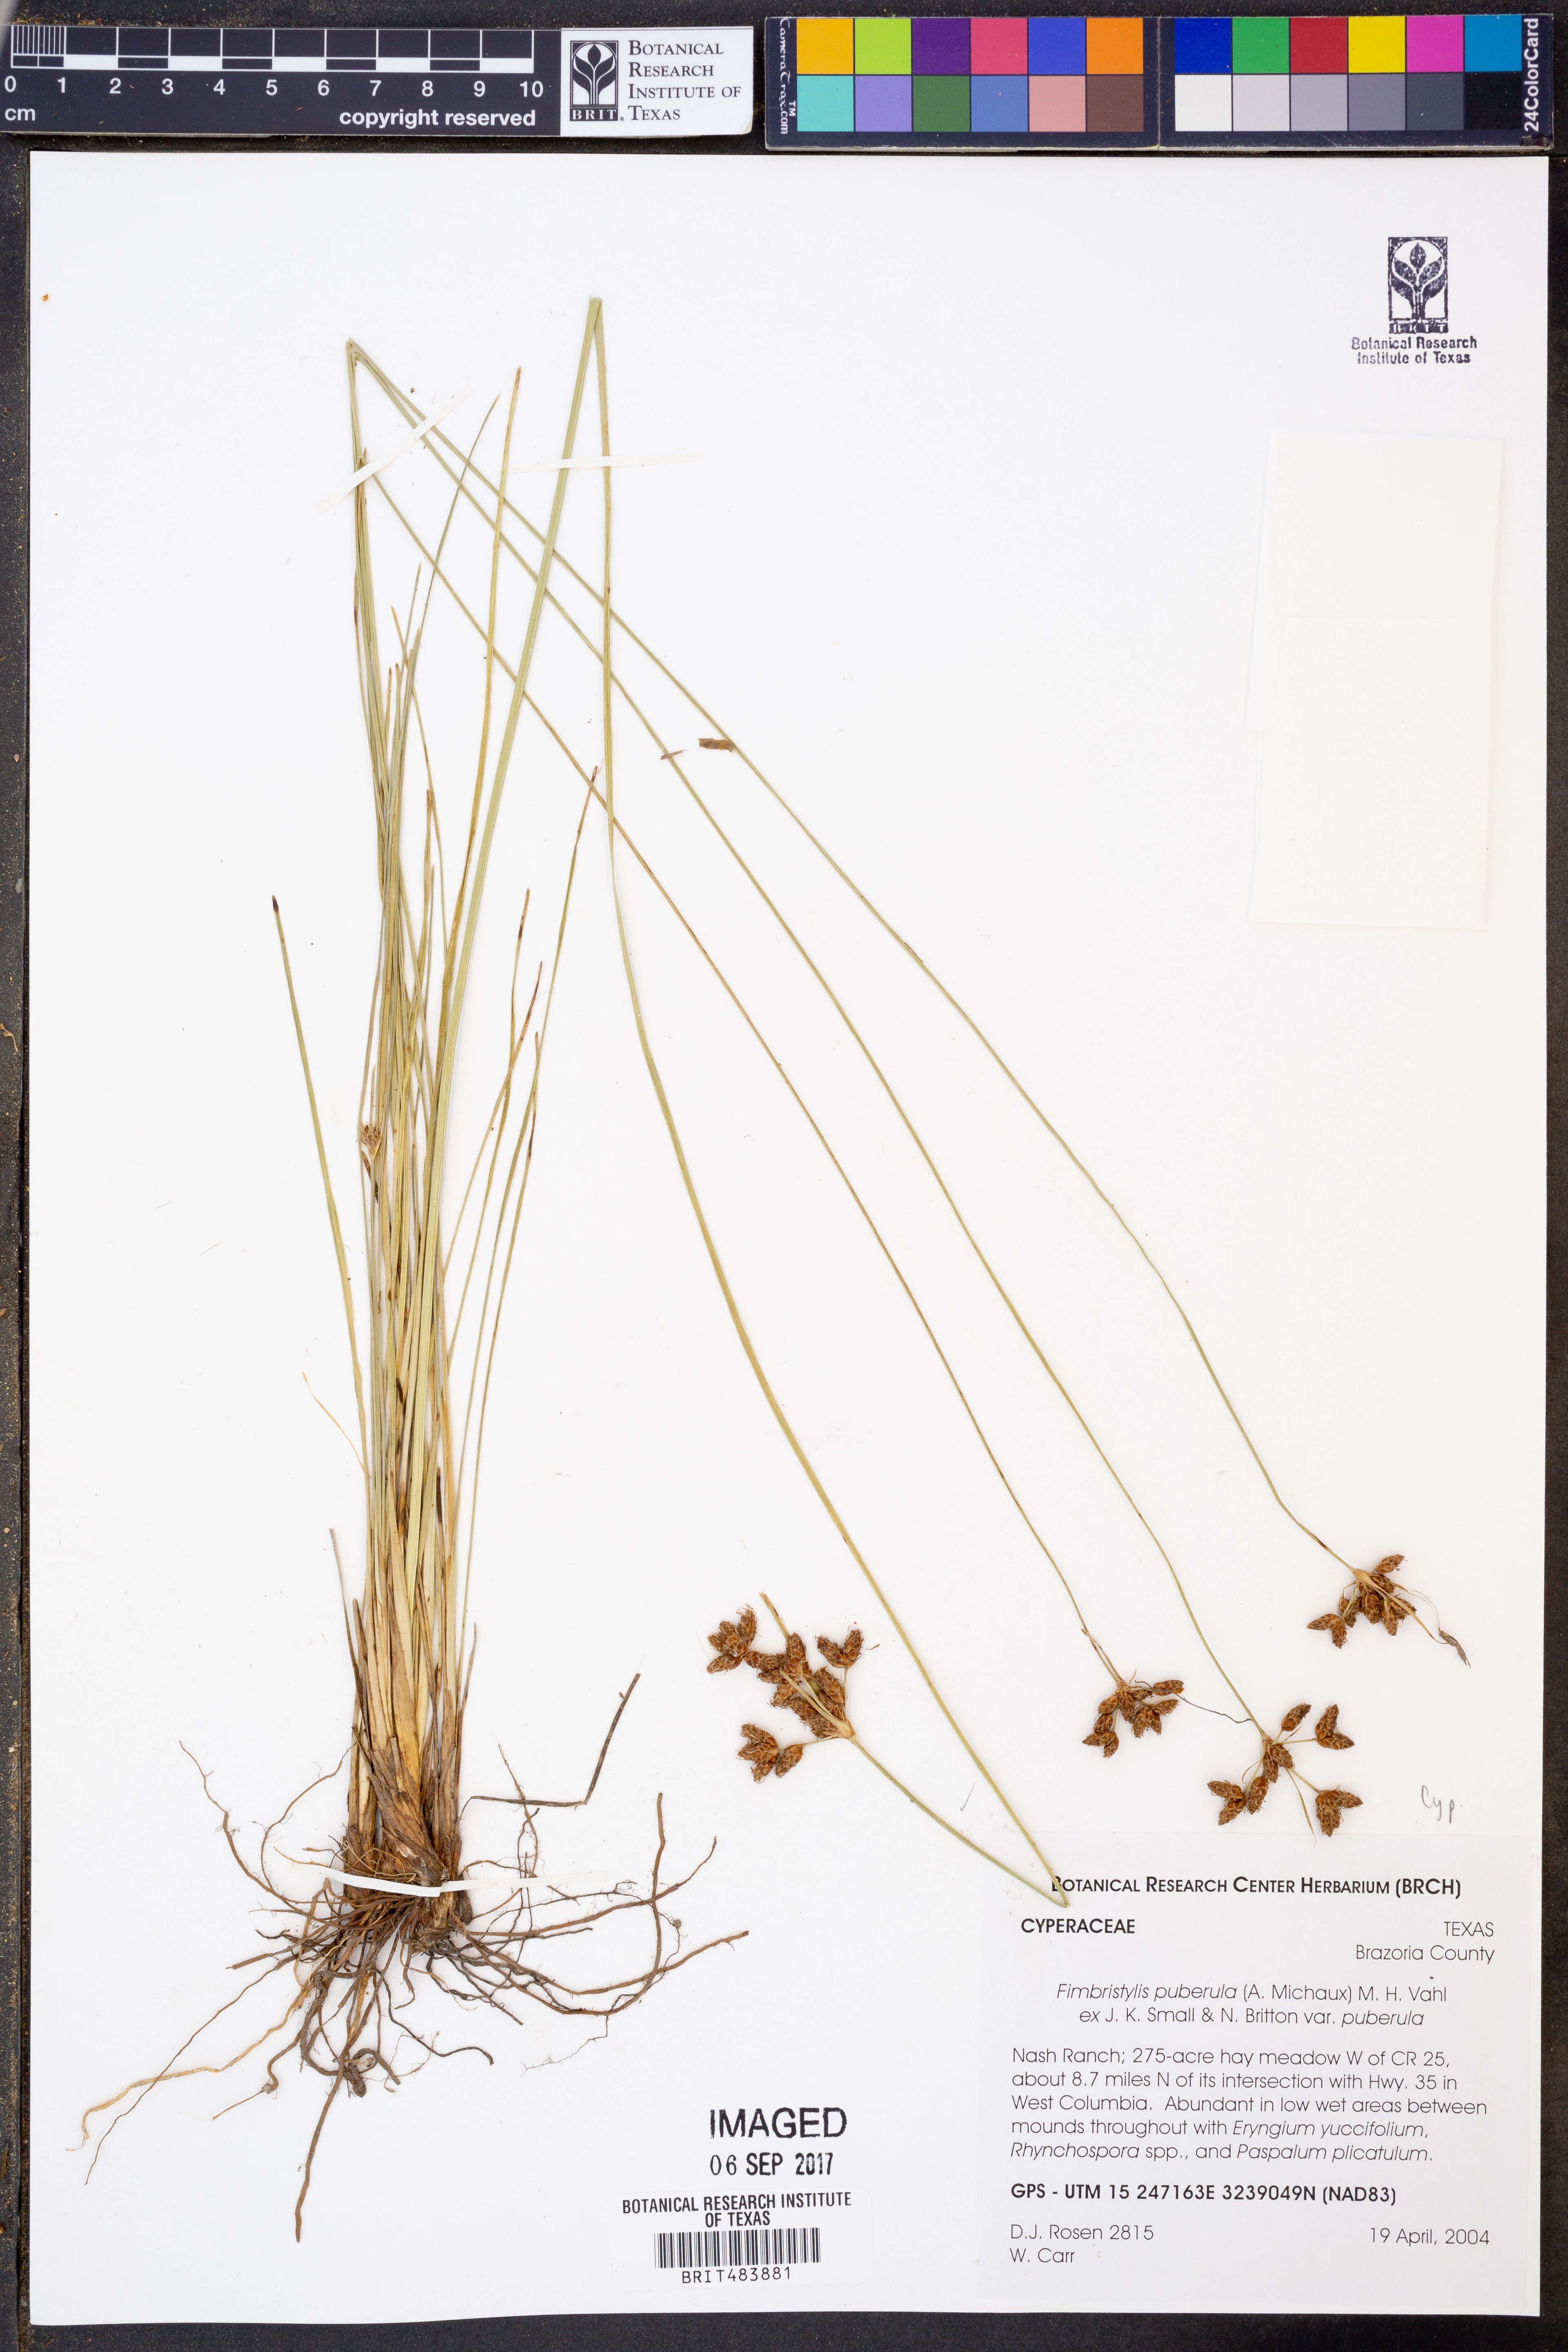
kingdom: Plantae
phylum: Tracheophyta
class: Liliopsida
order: Poales
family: Cyperaceae
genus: Fimbristylis
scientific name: Fimbristylis puberula
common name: Hairy fimbristylis
